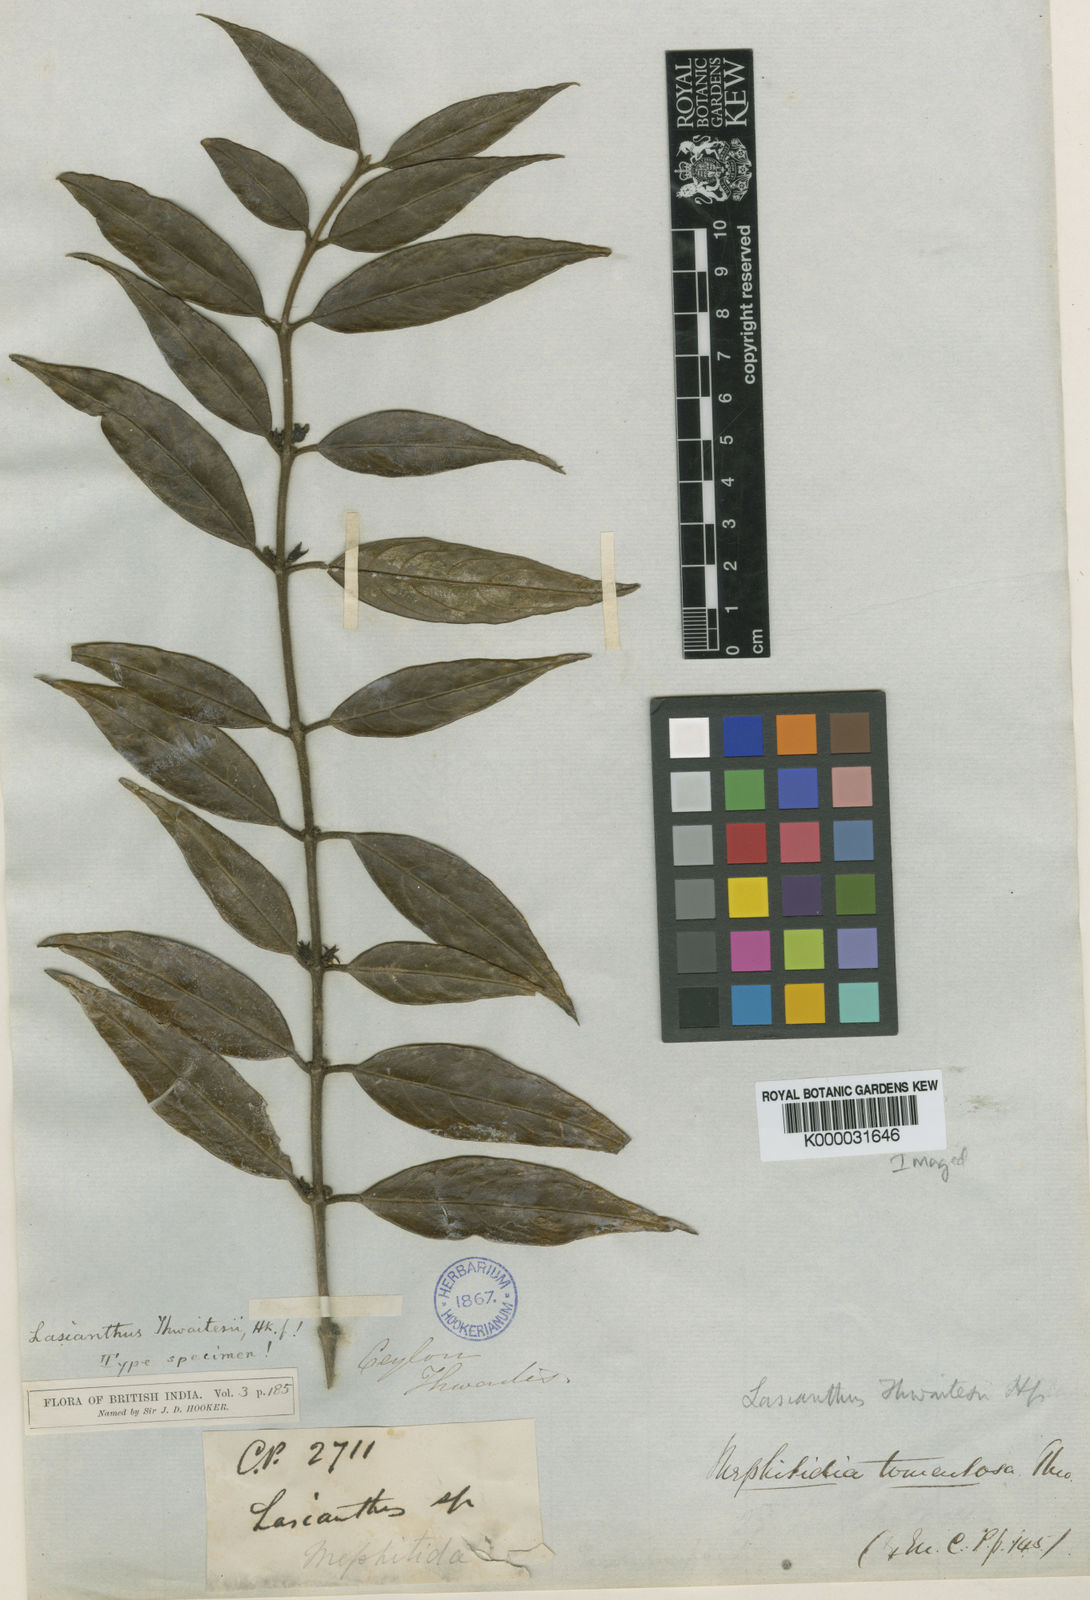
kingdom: Plantae
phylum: Tracheophyta
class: Magnoliopsida
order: Gentianales
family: Rubiaceae
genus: Lasianthus
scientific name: Lasianthus thwaitesii
